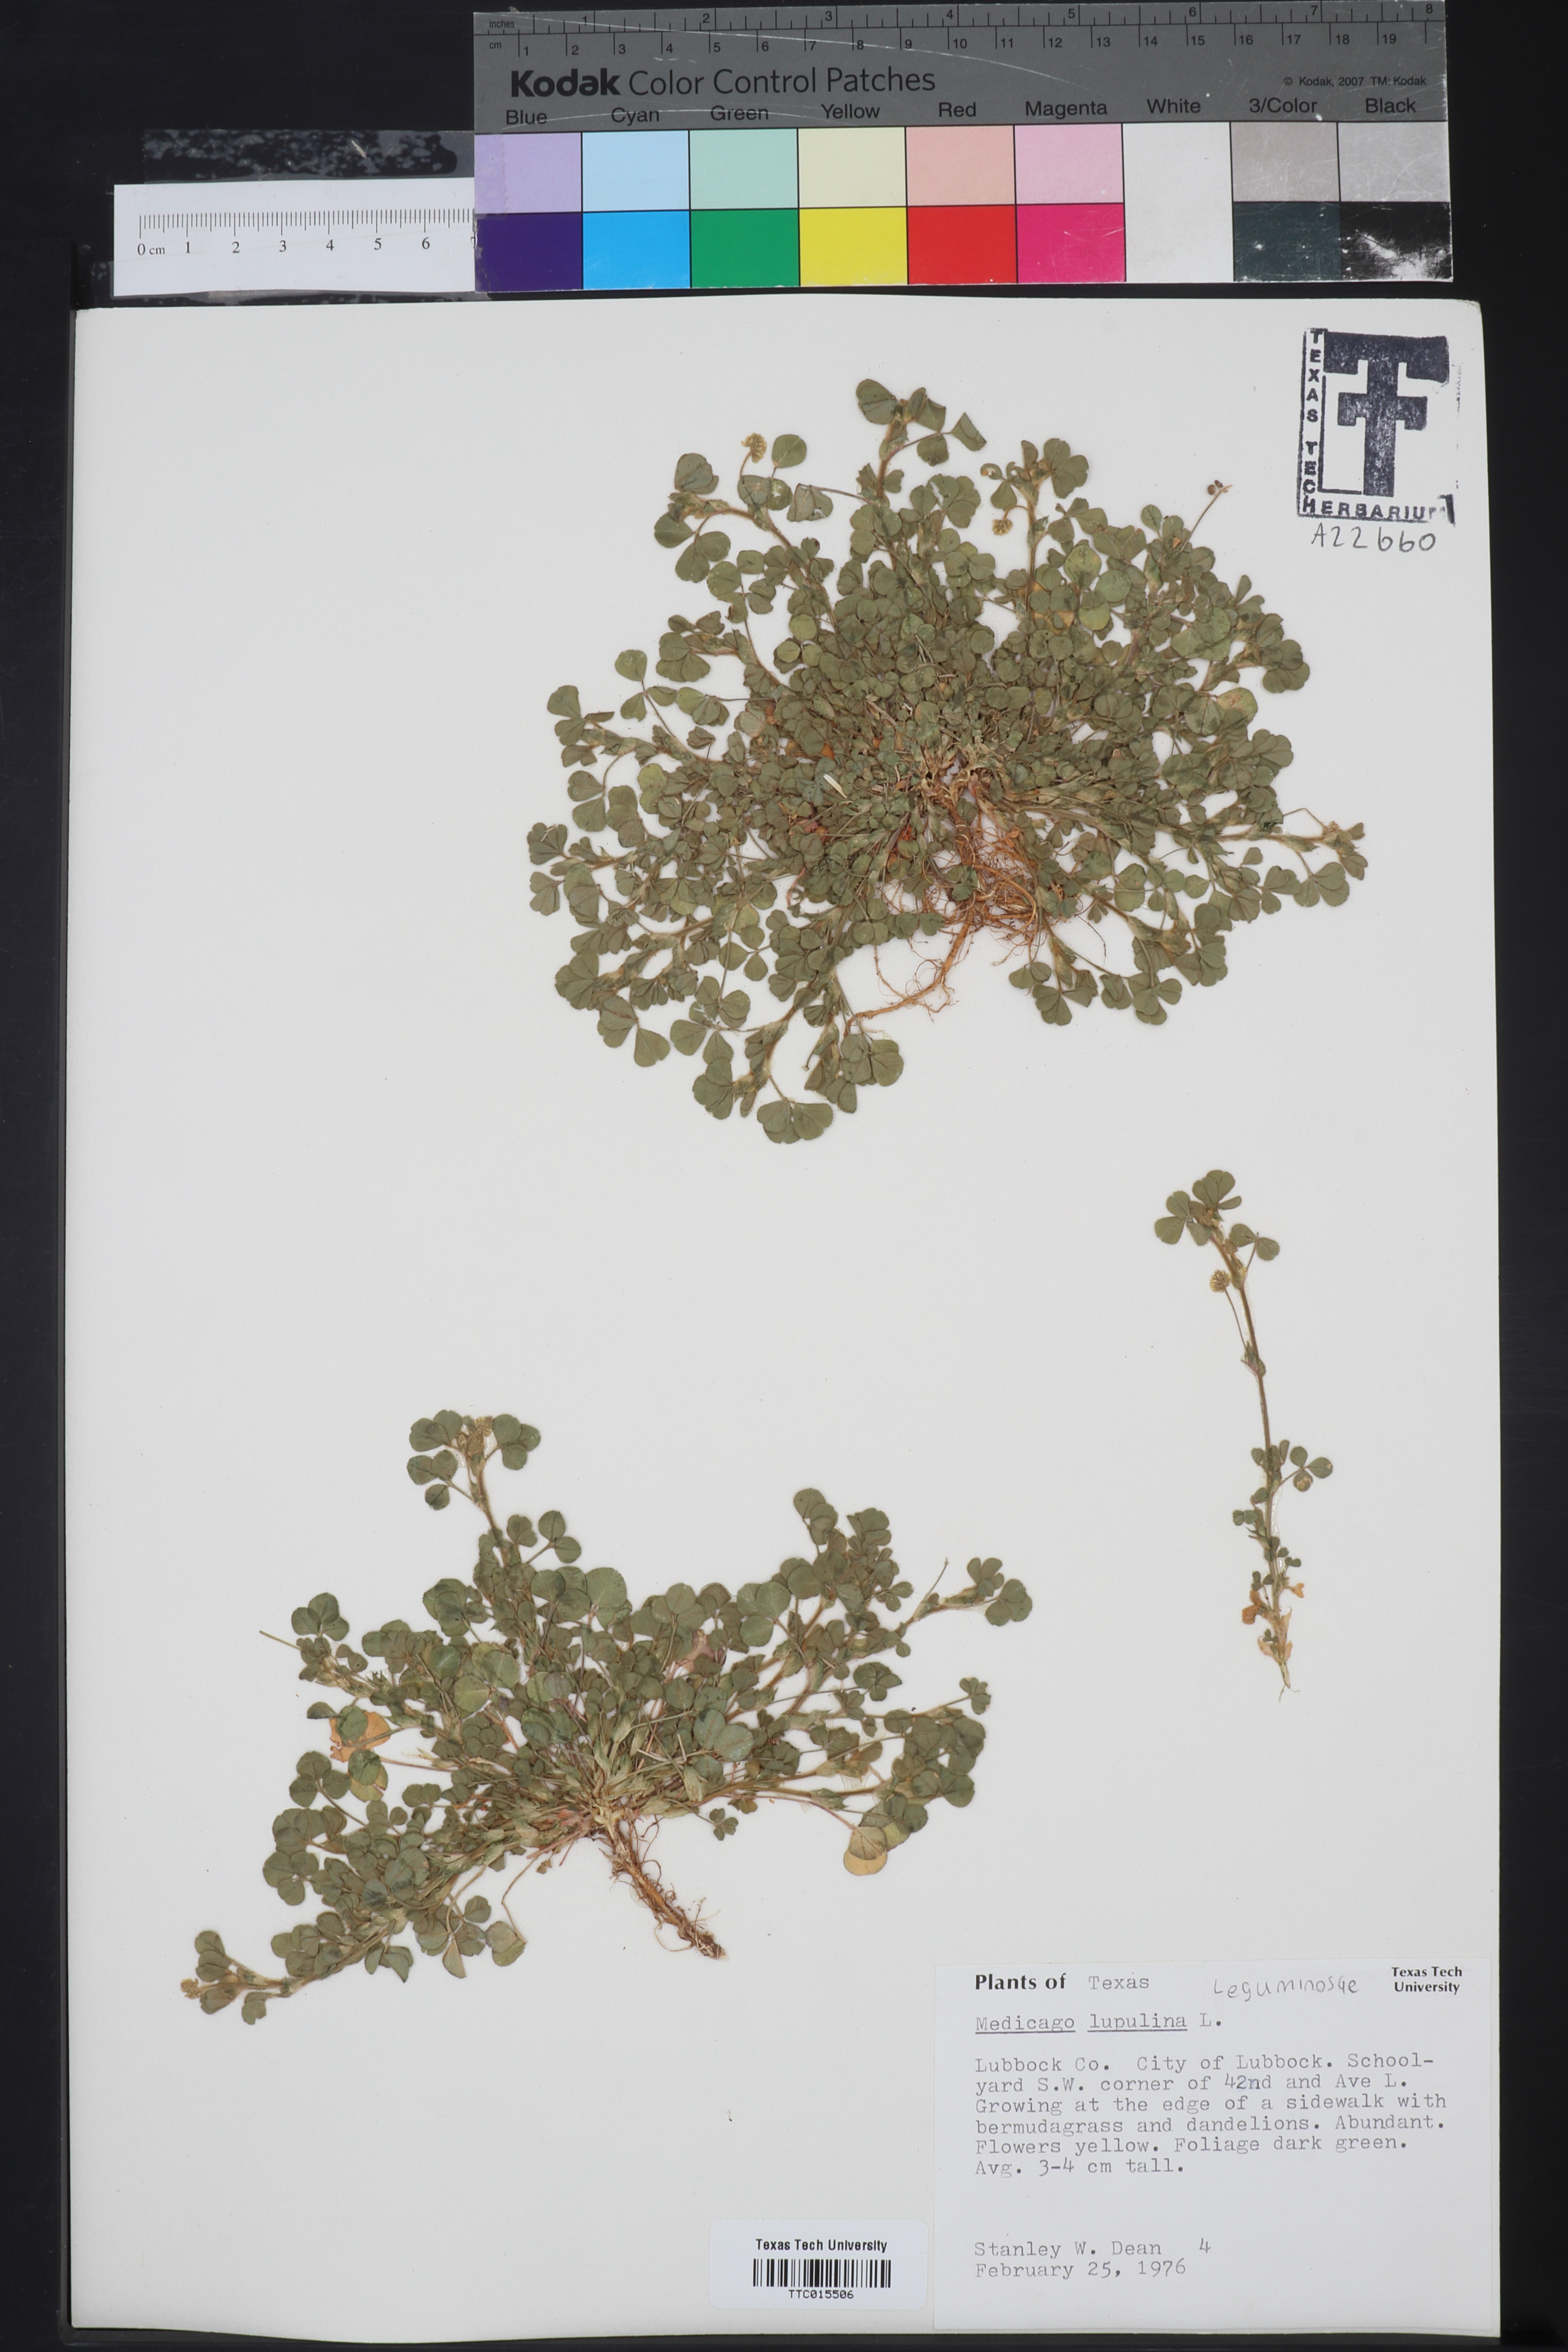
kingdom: Plantae
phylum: Tracheophyta
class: Magnoliopsida
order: Fabales
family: Fabaceae
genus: Medicago
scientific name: Medicago lupulina
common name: Black medick
